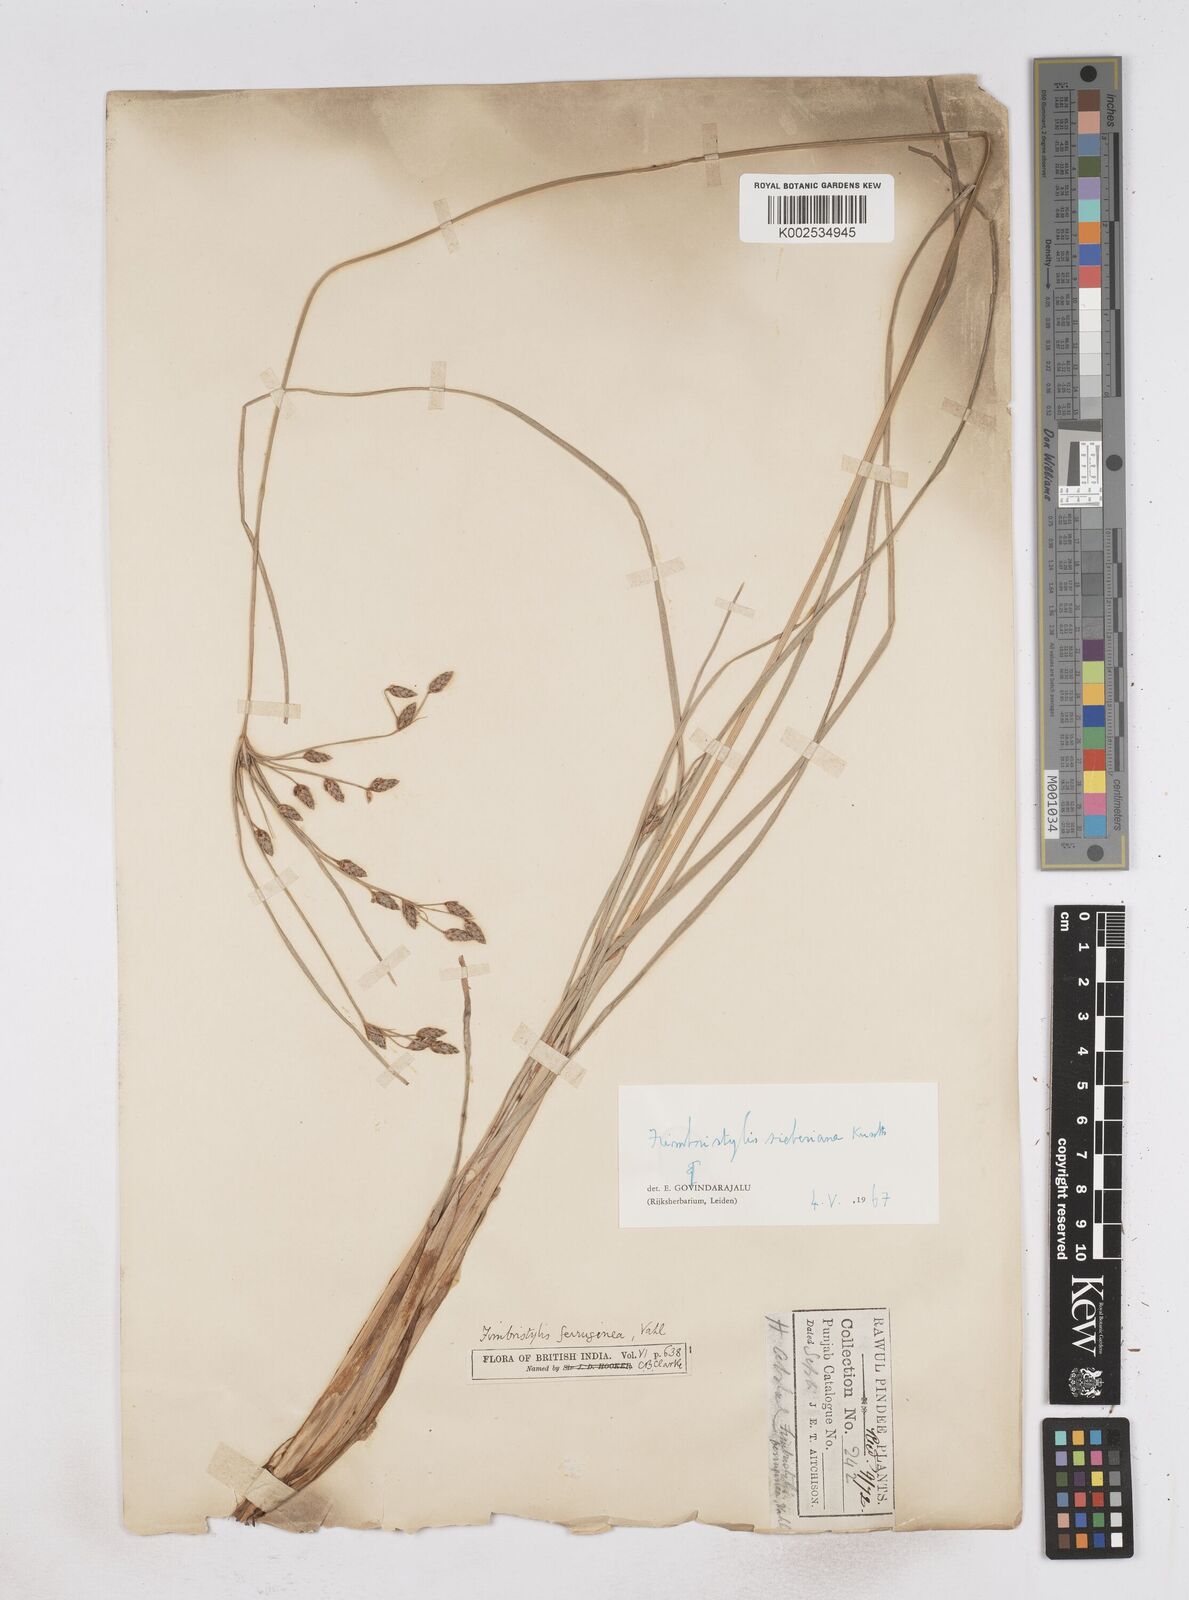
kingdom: Plantae
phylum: Tracheophyta
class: Liliopsida
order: Poales
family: Cyperaceae
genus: Fimbristylis
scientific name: Fimbristylis ferruginea
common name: West indian fimbry
